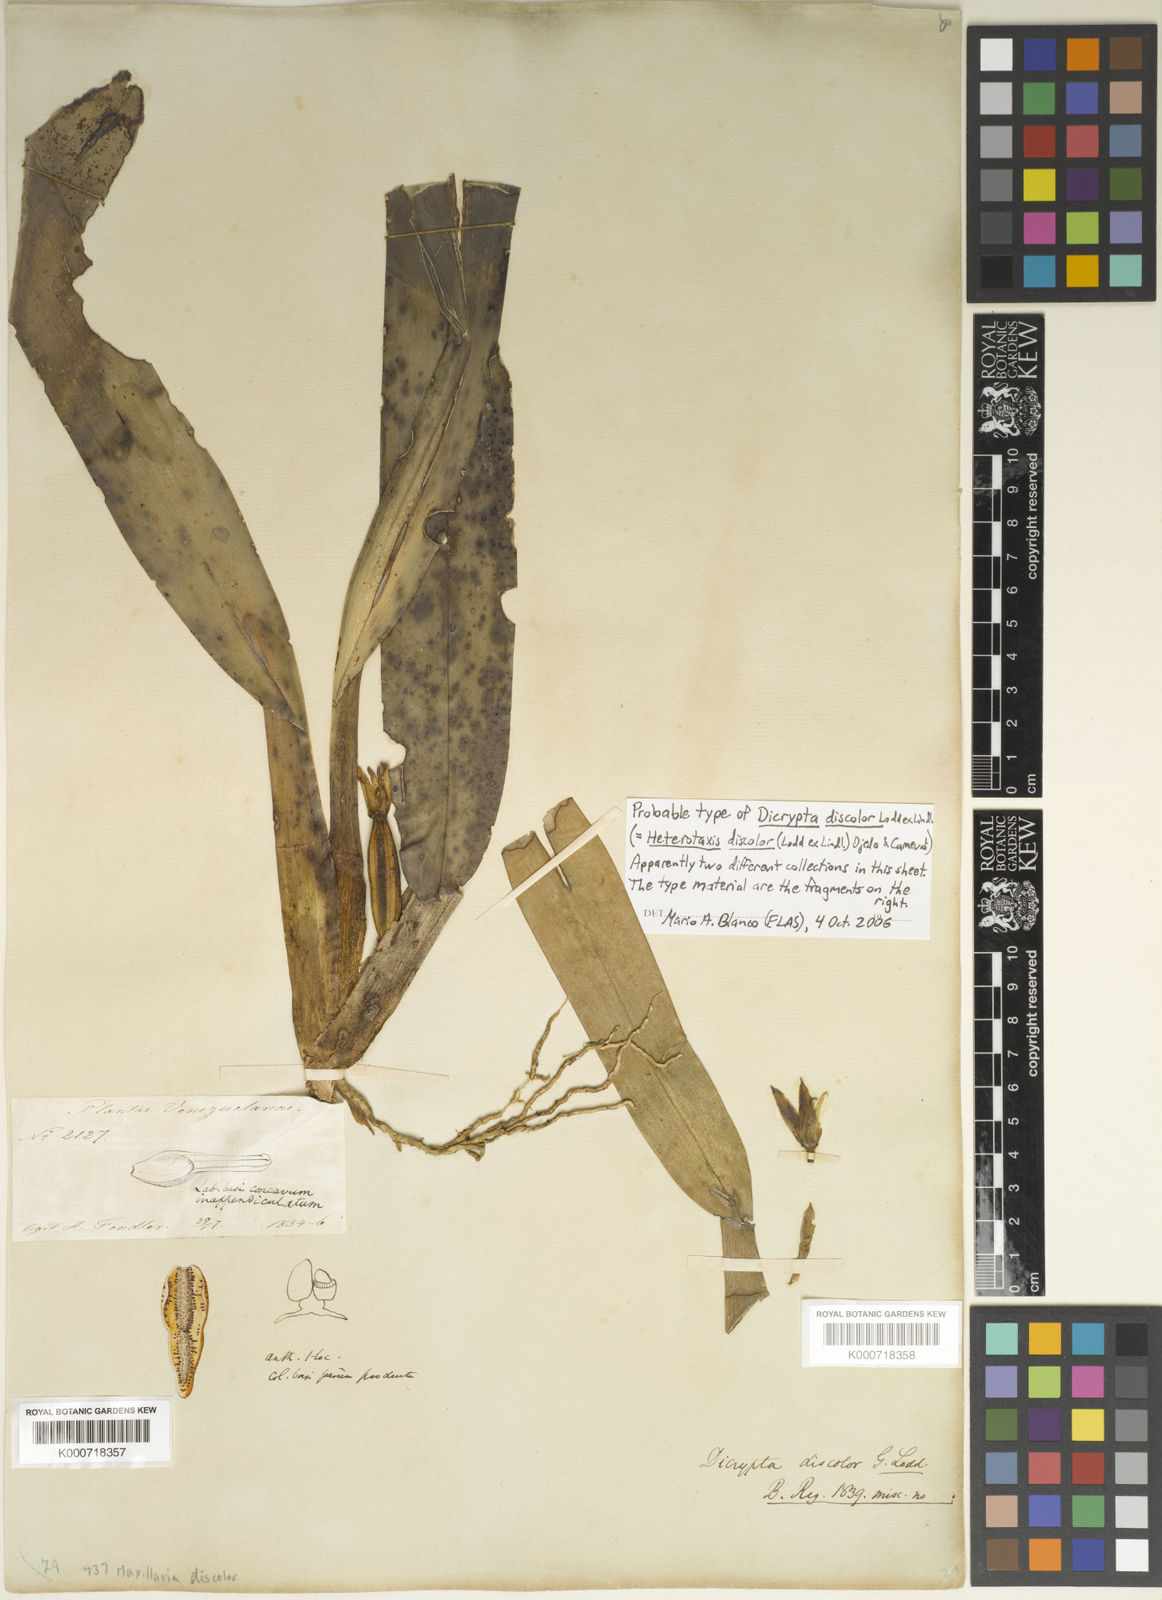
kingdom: Plantae
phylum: Tracheophyta
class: Liliopsida
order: Asparagales
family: Orchidaceae
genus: Maxillaria
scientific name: Maxillaria discolor
